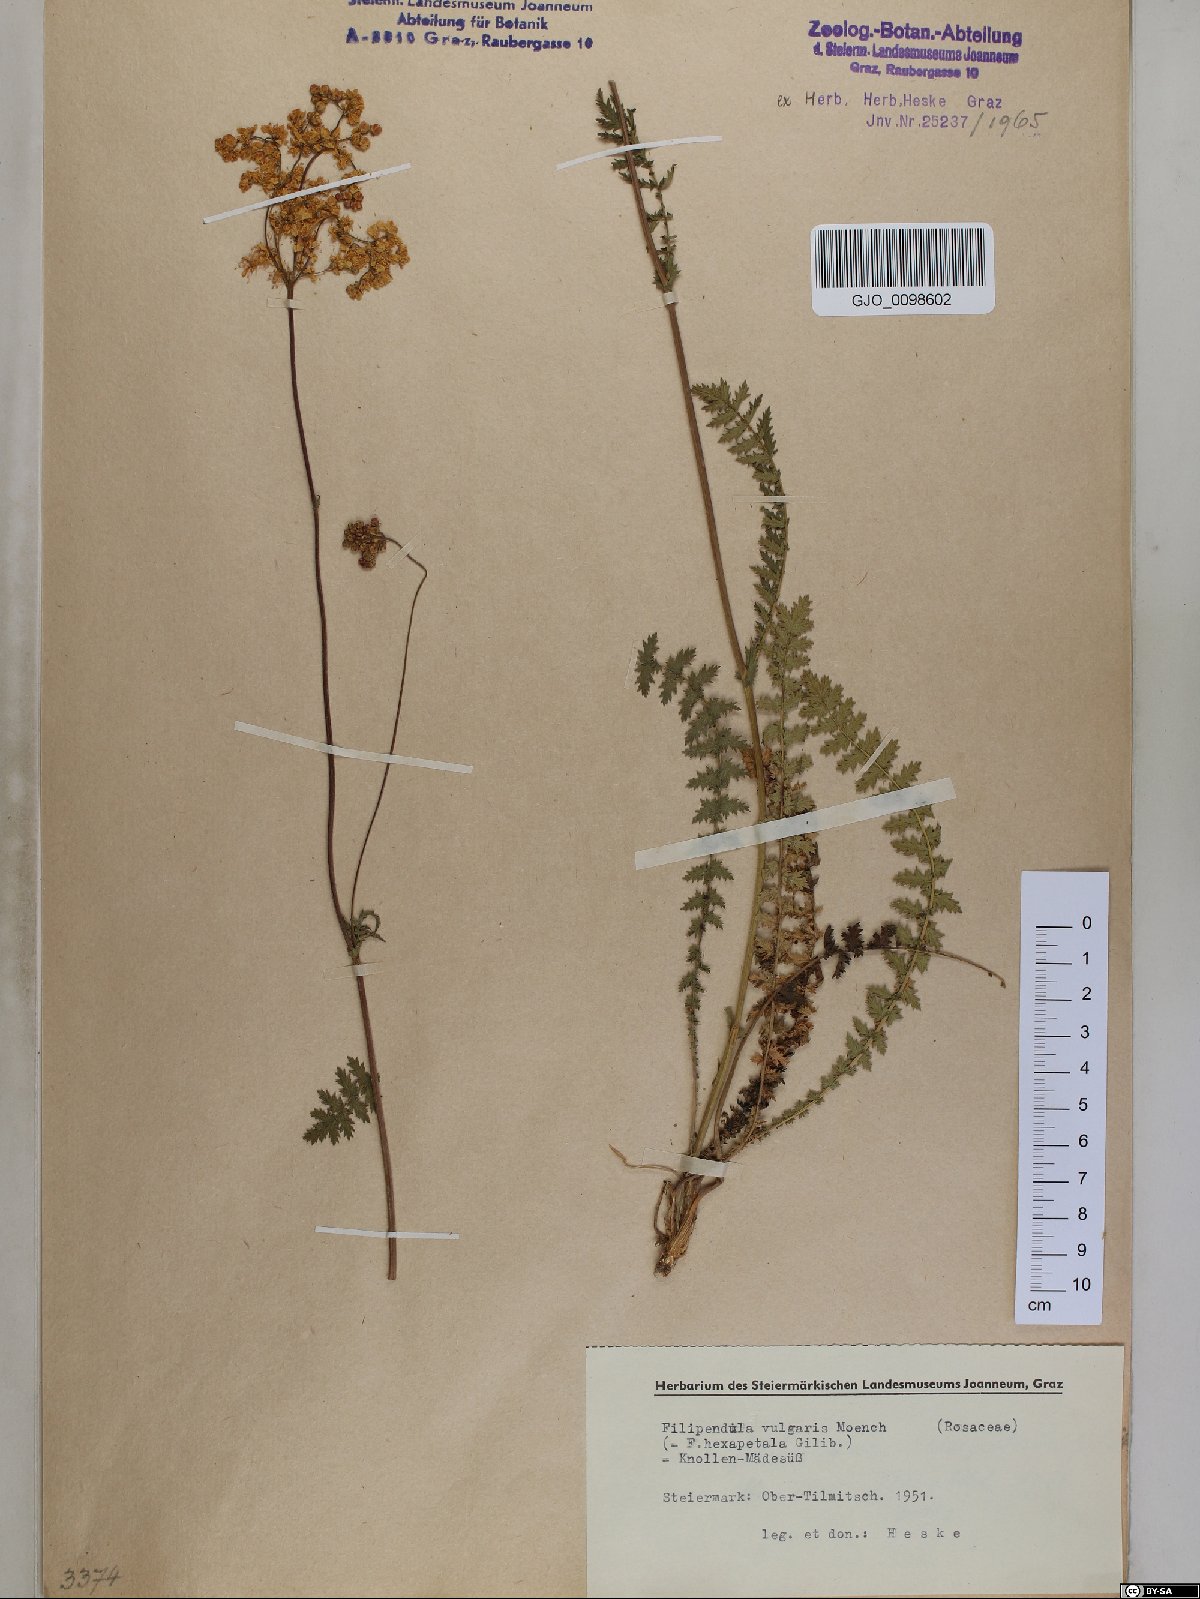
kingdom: Plantae
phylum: Tracheophyta
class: Magnoliopsida
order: Rosales
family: Rosaceae
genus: Filipendula
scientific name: Filipendula vulgaris
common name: Dropwort
